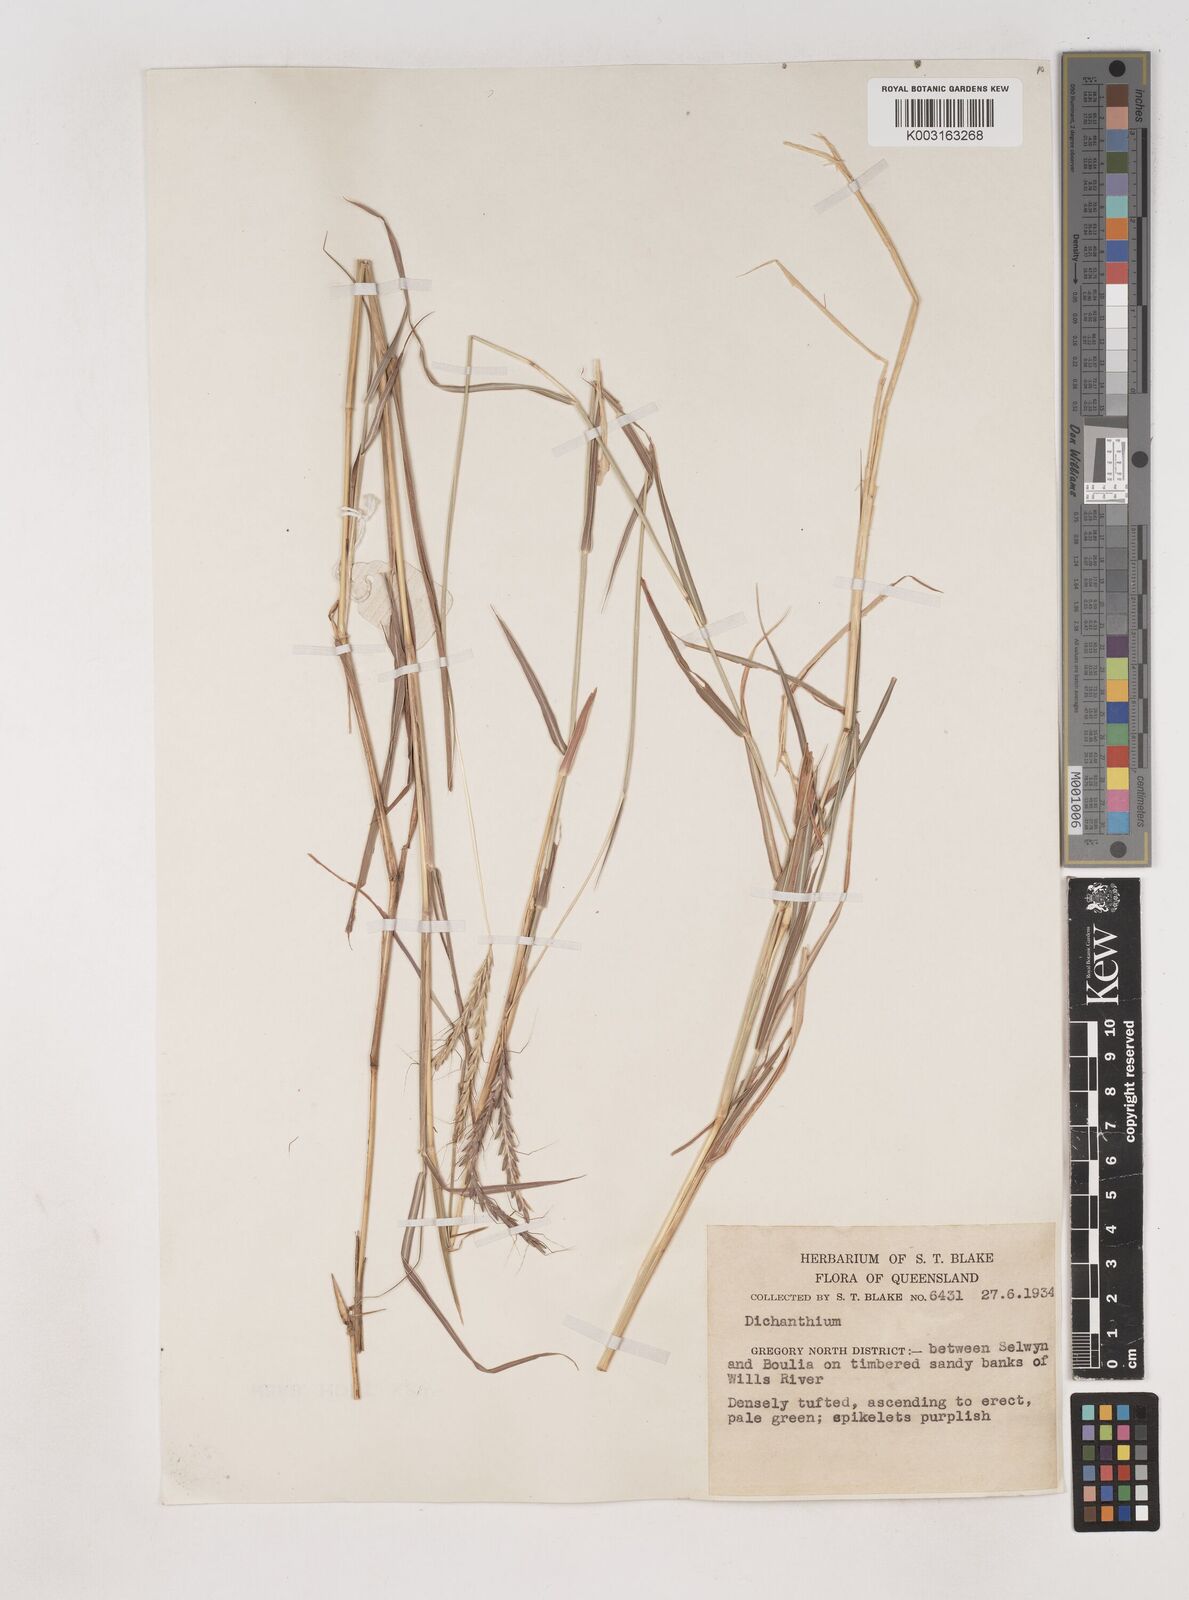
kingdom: Plantae
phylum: Tracheophyta
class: Liliopsida
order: Poales
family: Poaceae
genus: Dichanthium
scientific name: Dichanthium fecundum
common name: Bundle-bundle
